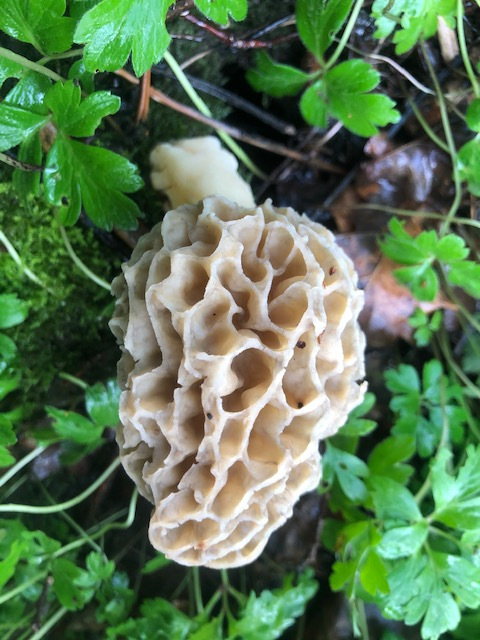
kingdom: Fungi
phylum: Ascomycota
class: Pezizomycetes
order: Pezizales
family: Morchellaceae
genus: Morchella
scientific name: Morchella esculenta
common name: spiselig morkel
